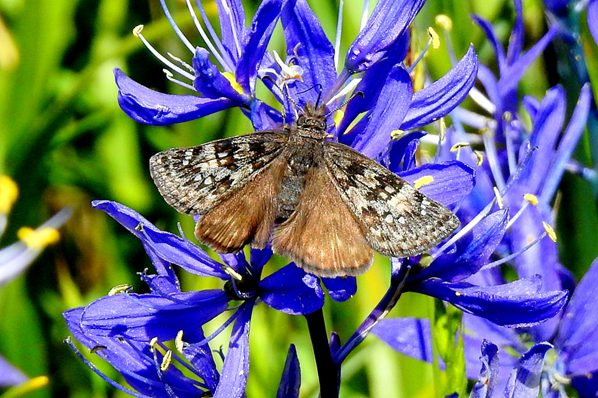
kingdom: Animalia
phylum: Arthropoda
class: Insecta
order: Lepidoptera
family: Hesperiidae
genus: Erynnis
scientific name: Erynnis propertius
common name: Propertius Duskywing
